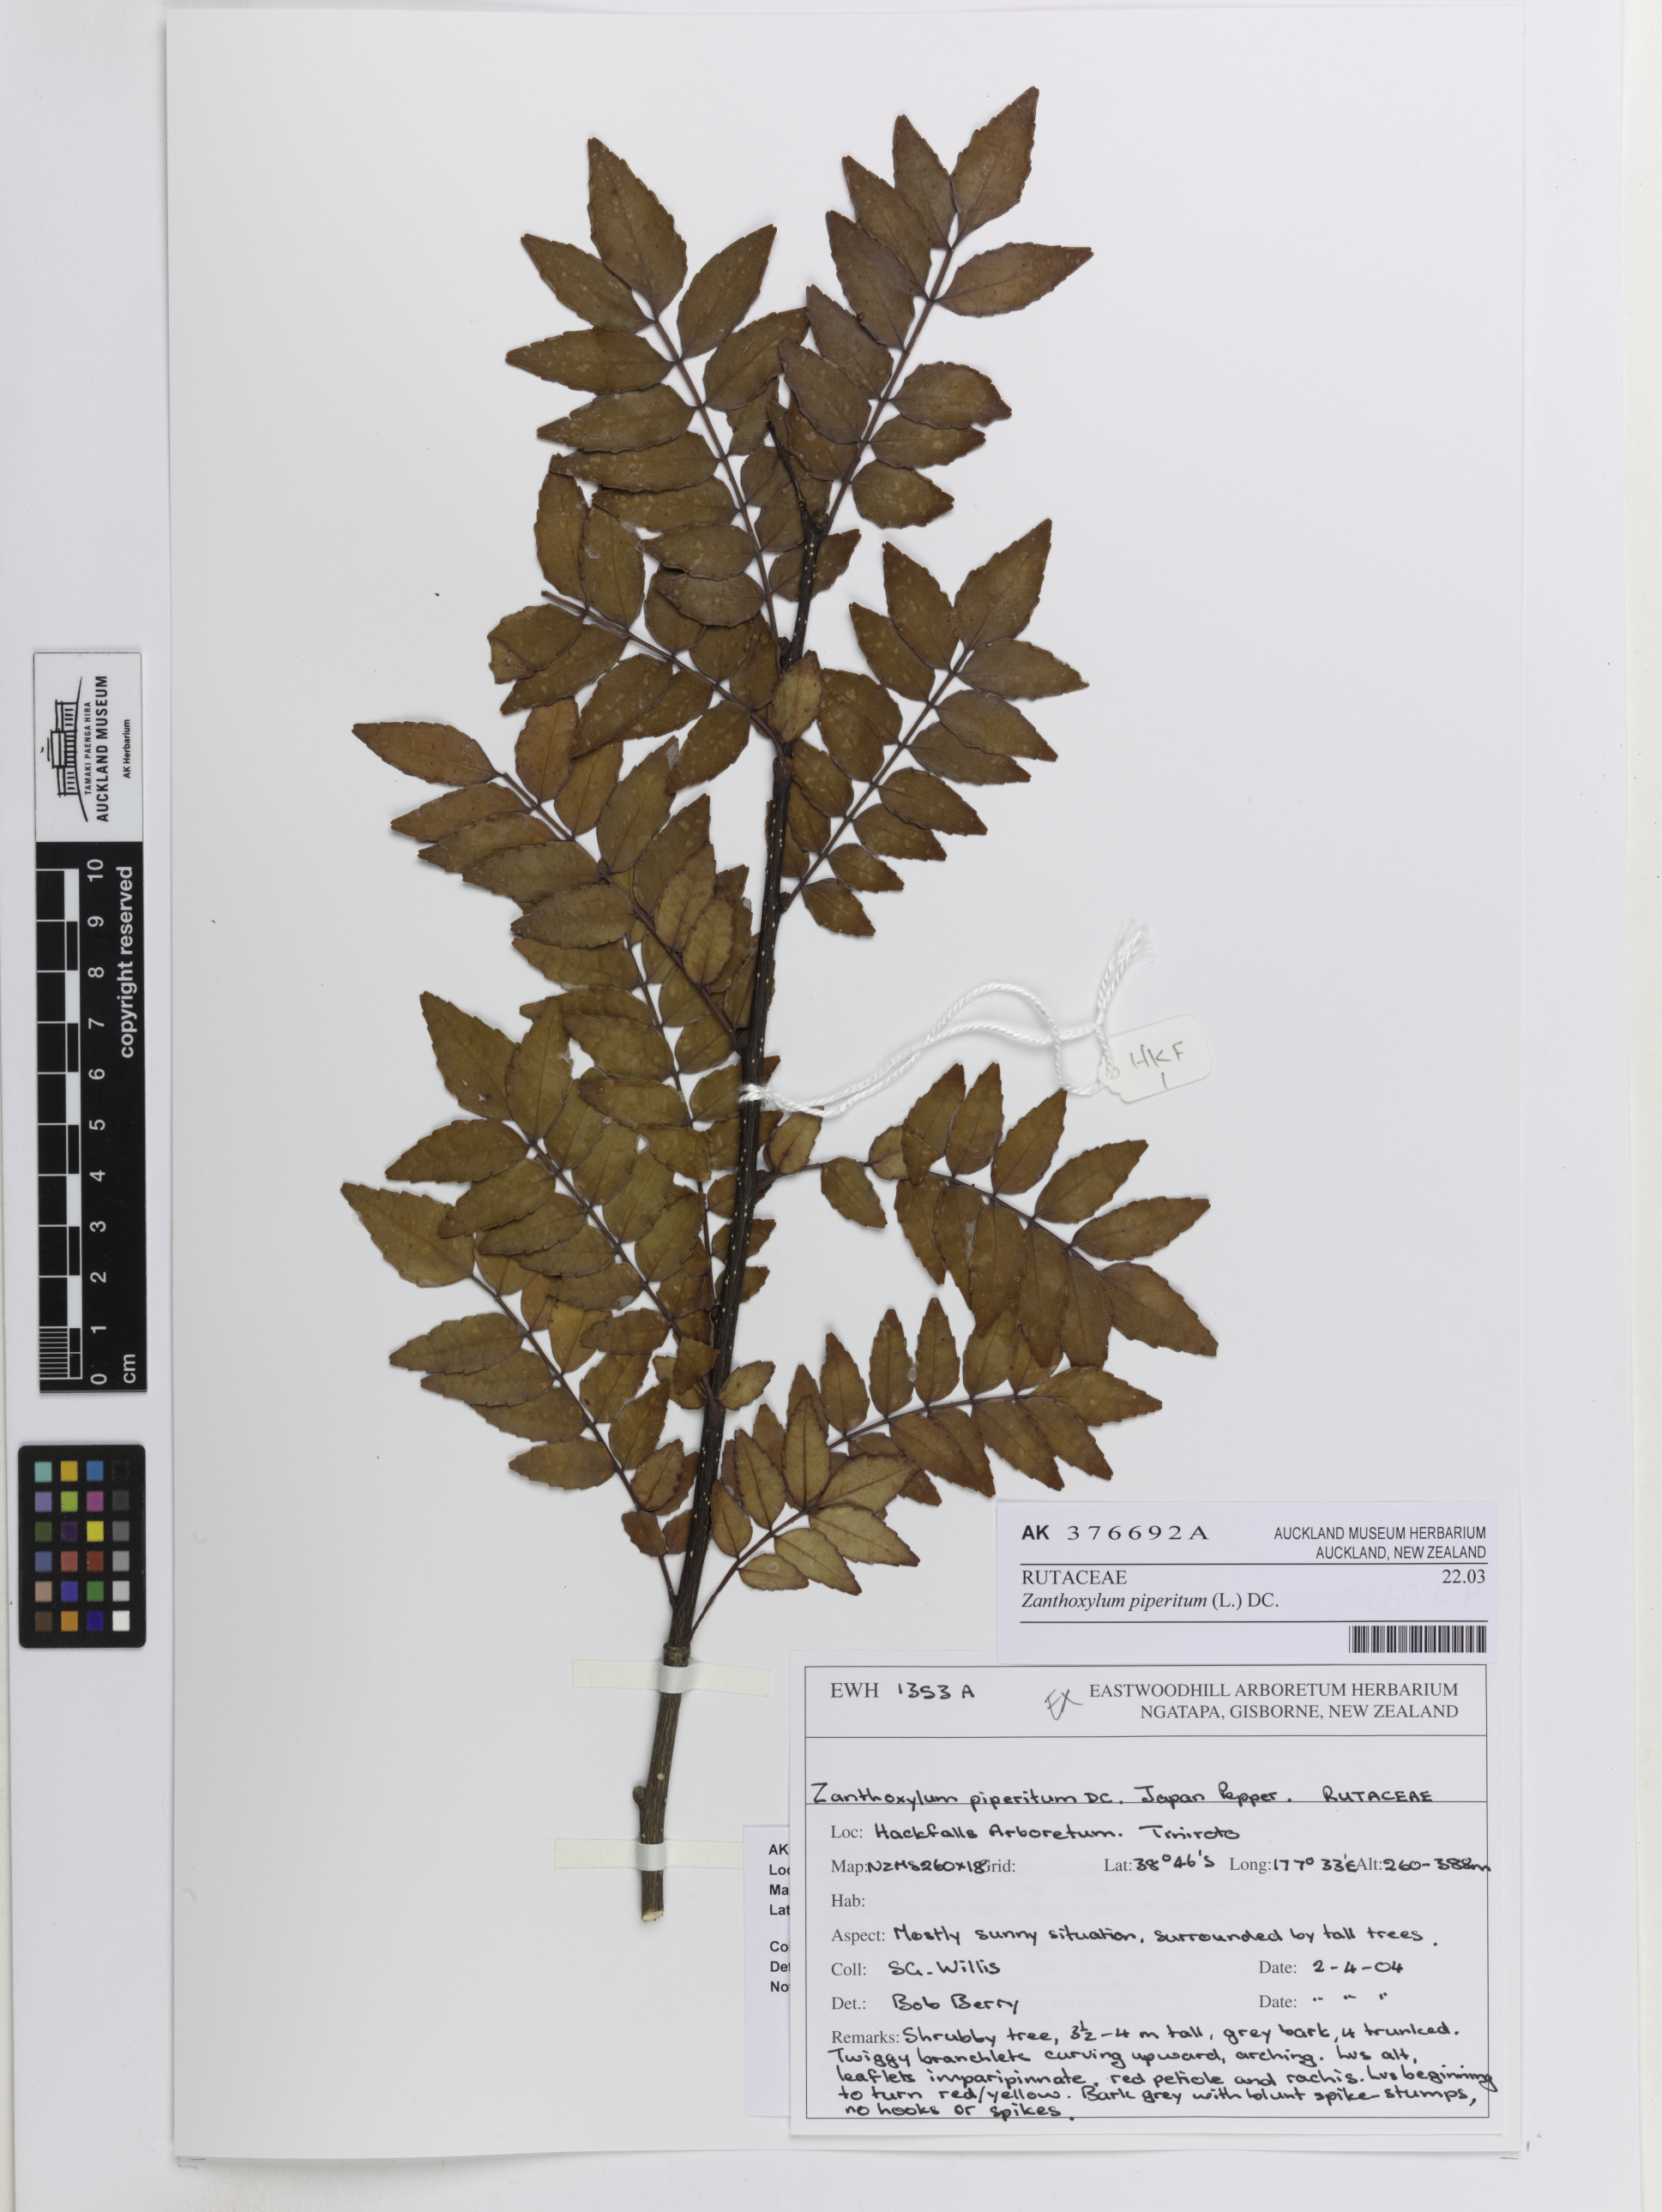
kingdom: Plantae
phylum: Tracheophyta
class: Magnoliopsida
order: Sapindales
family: Rutaceae
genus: Zanthoxylum
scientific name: Zanthoxylum piperitum
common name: Japanese-pepper
